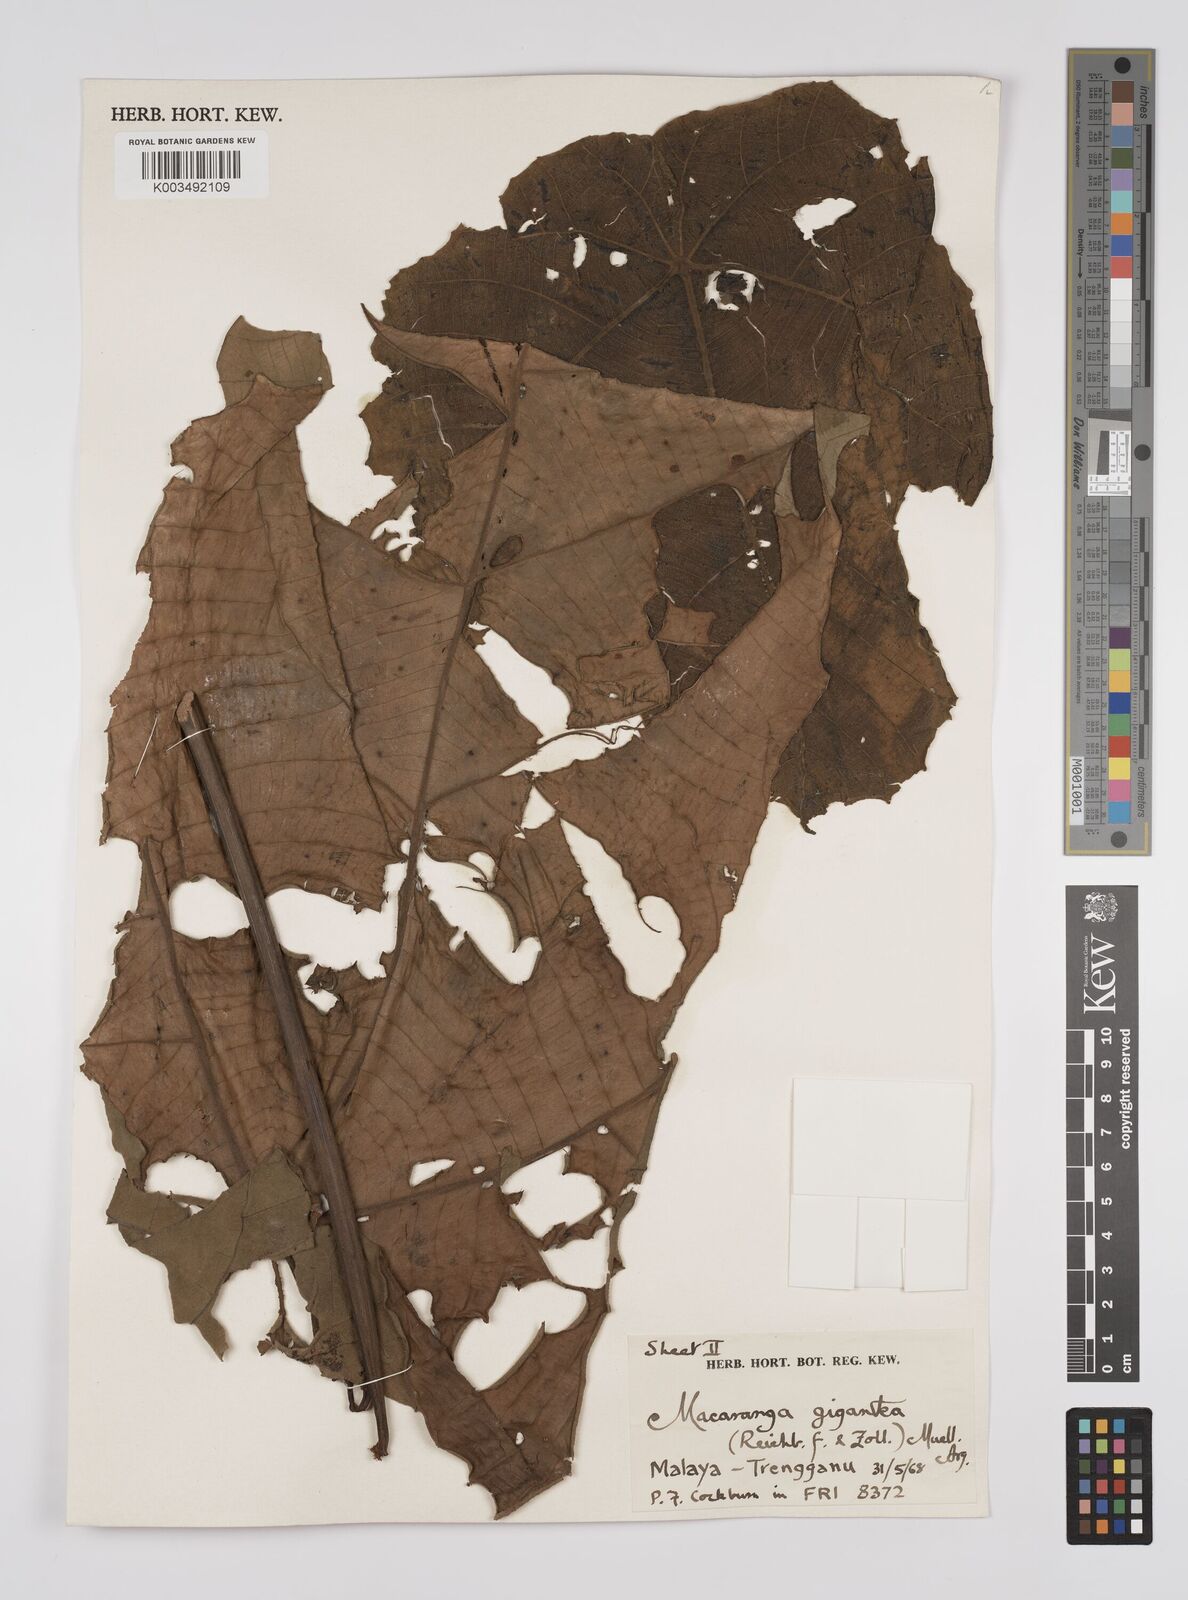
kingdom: Plantae
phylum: Tracheophyta
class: Magnoliopsida
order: Malpighiales
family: Euphorbiaceae
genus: Macaranga
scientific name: Macaranga gigantea
